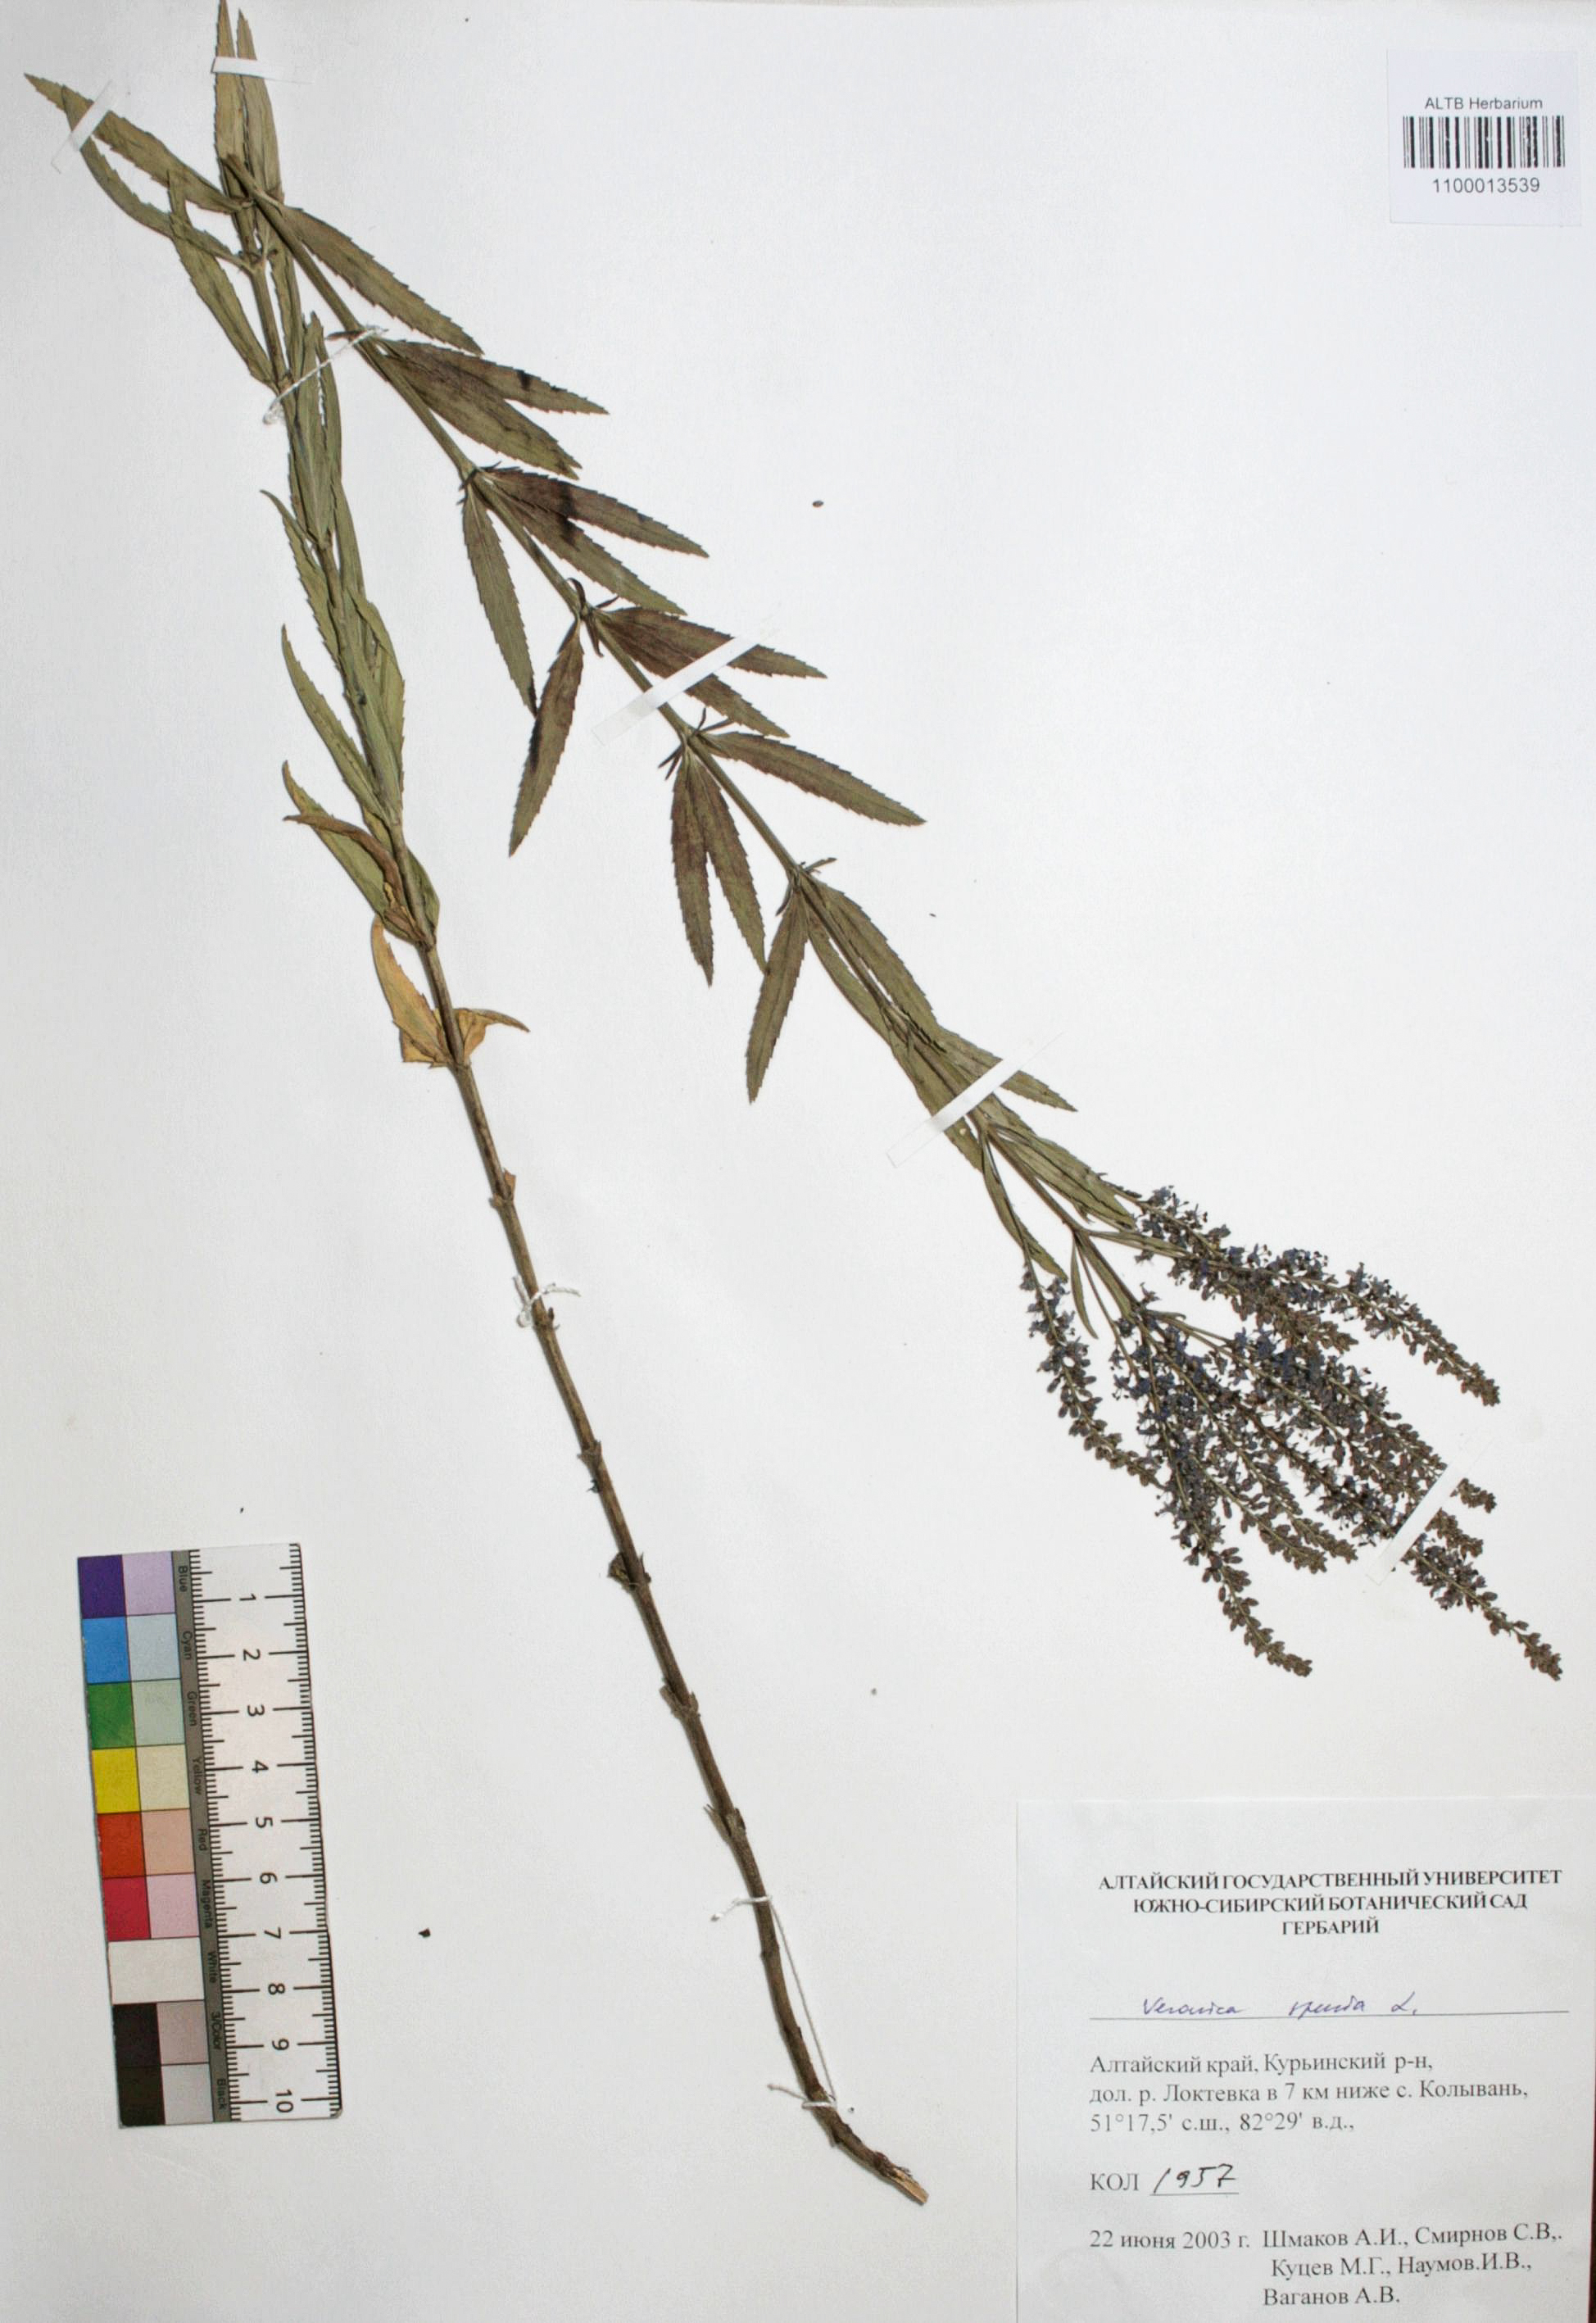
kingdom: Plantae
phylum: Tracheophyta
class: Magnoliopsida
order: Lamiales
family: Plantaginaceae
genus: Veronica
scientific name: Veronica spuria
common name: Bastard speedwell
